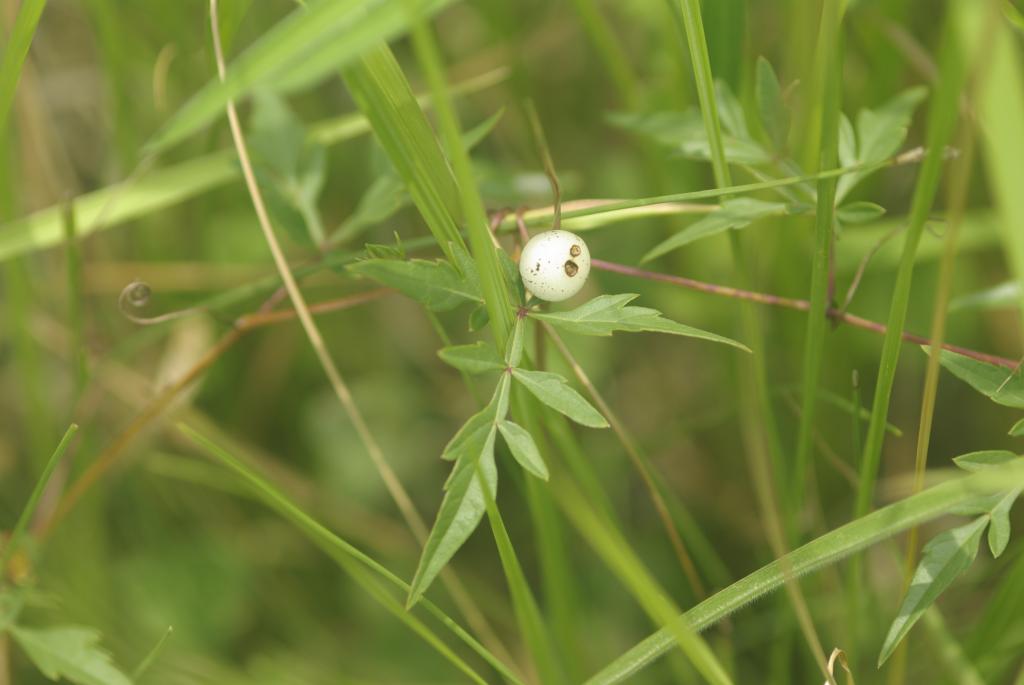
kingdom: Plantae
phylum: Tracheophyta
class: Magnoliopsida
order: Vitales
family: Vitaceae
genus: Ampelopsis
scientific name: Ampelopsis japonica
